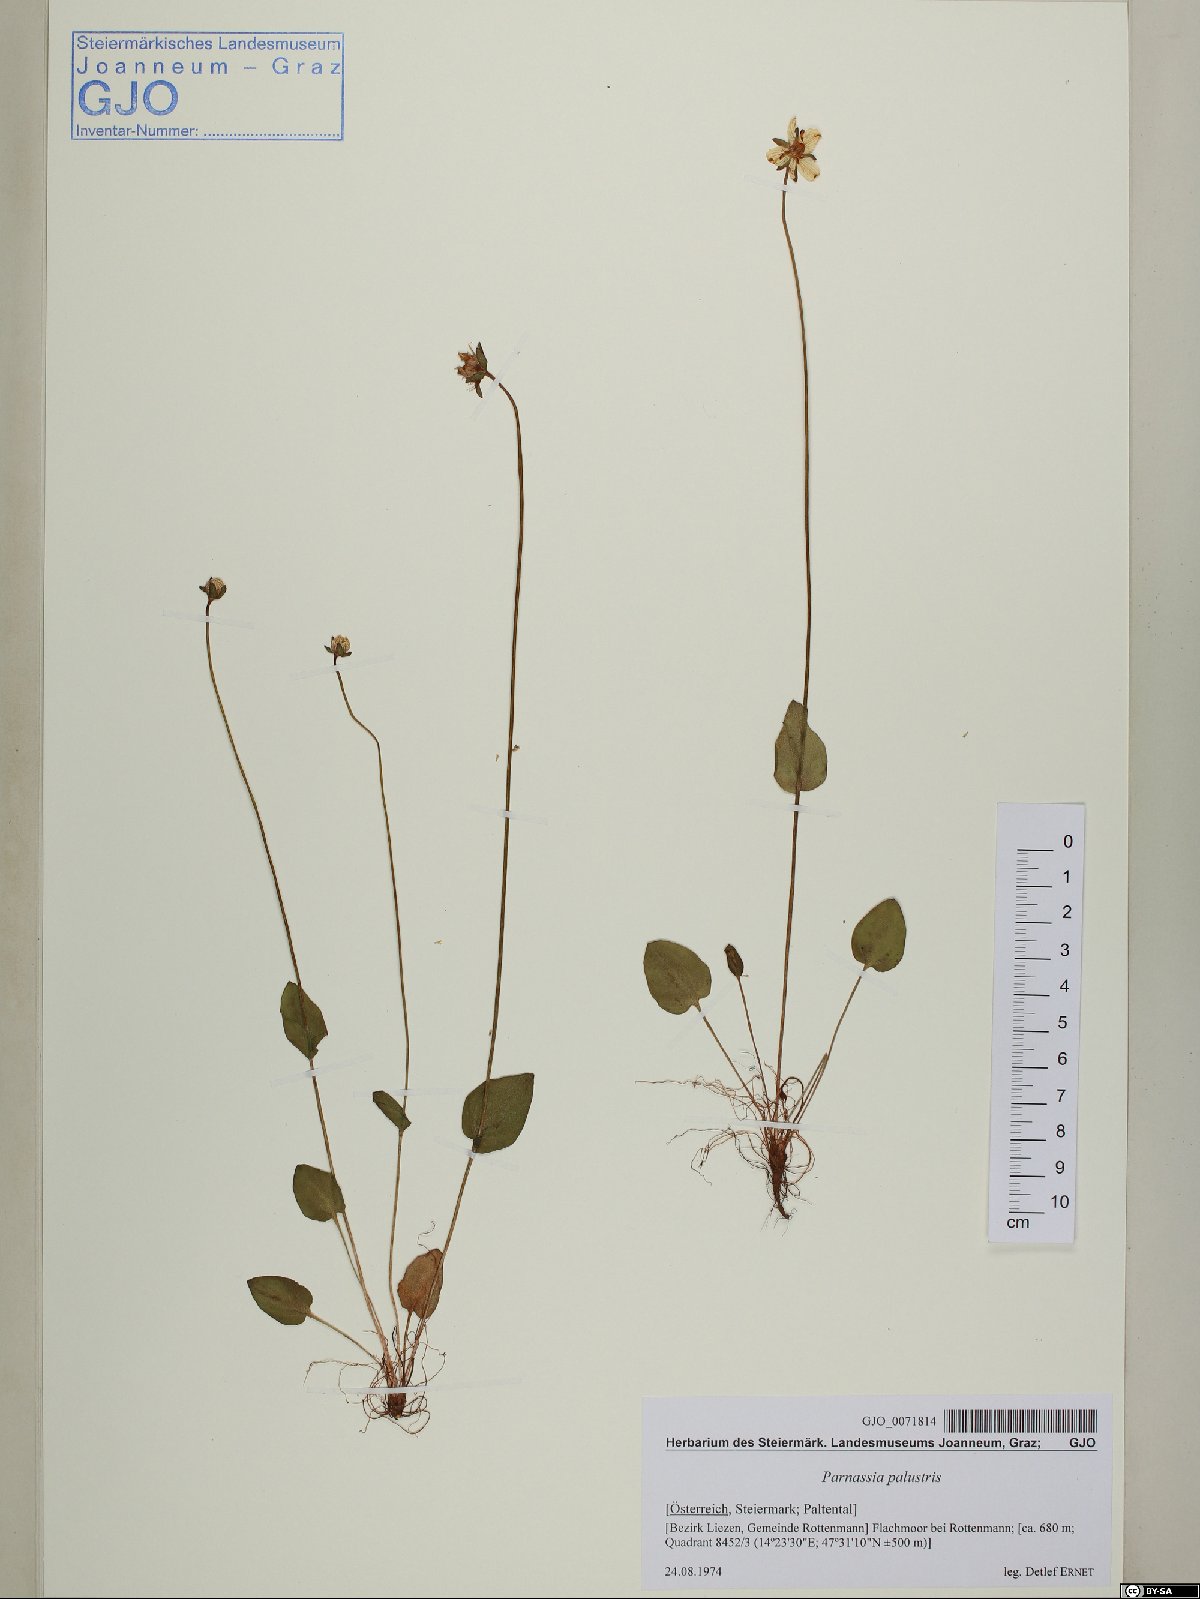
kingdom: Plantae
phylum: Tracheophyta
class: Magnoliopsida
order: Celastrales
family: Parnassiaceae
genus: Parnassia
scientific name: Parnassia palustris
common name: Grass-of-parnassus
